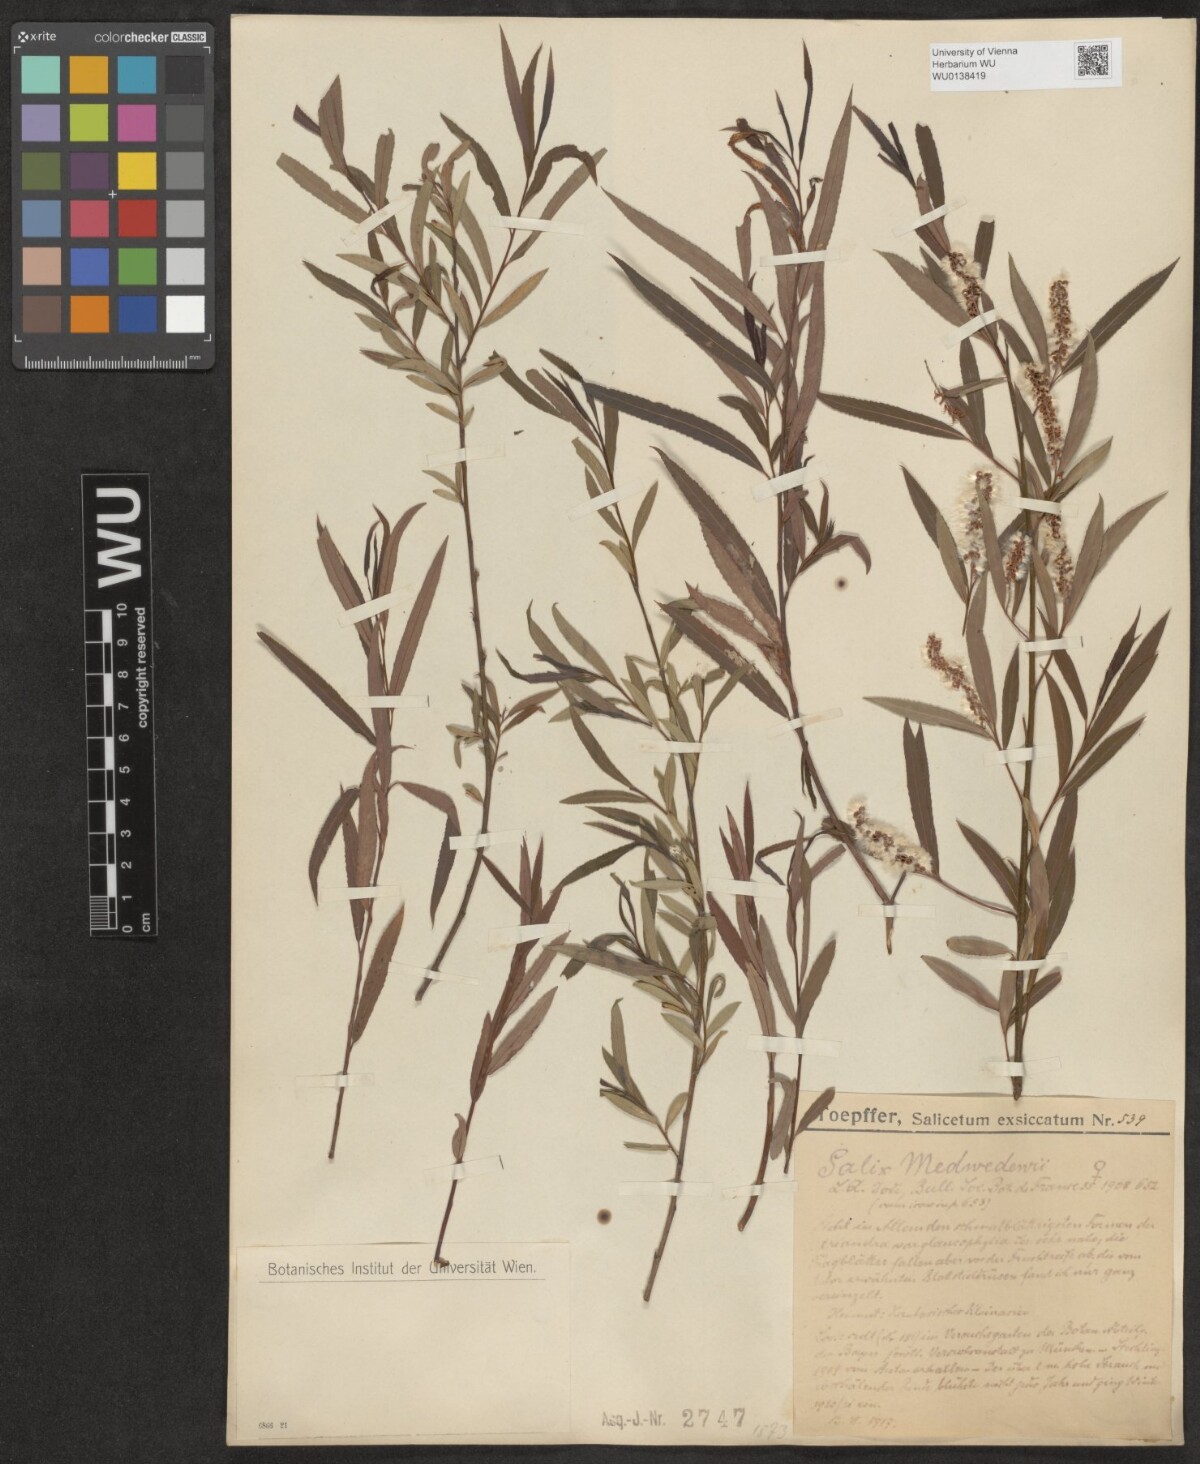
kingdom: Plantae
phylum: Tracheophyta
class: Magnoliopsida
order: Malpighiales
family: Salicaceae
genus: Salix
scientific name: Salix triandra
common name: Almond willow
